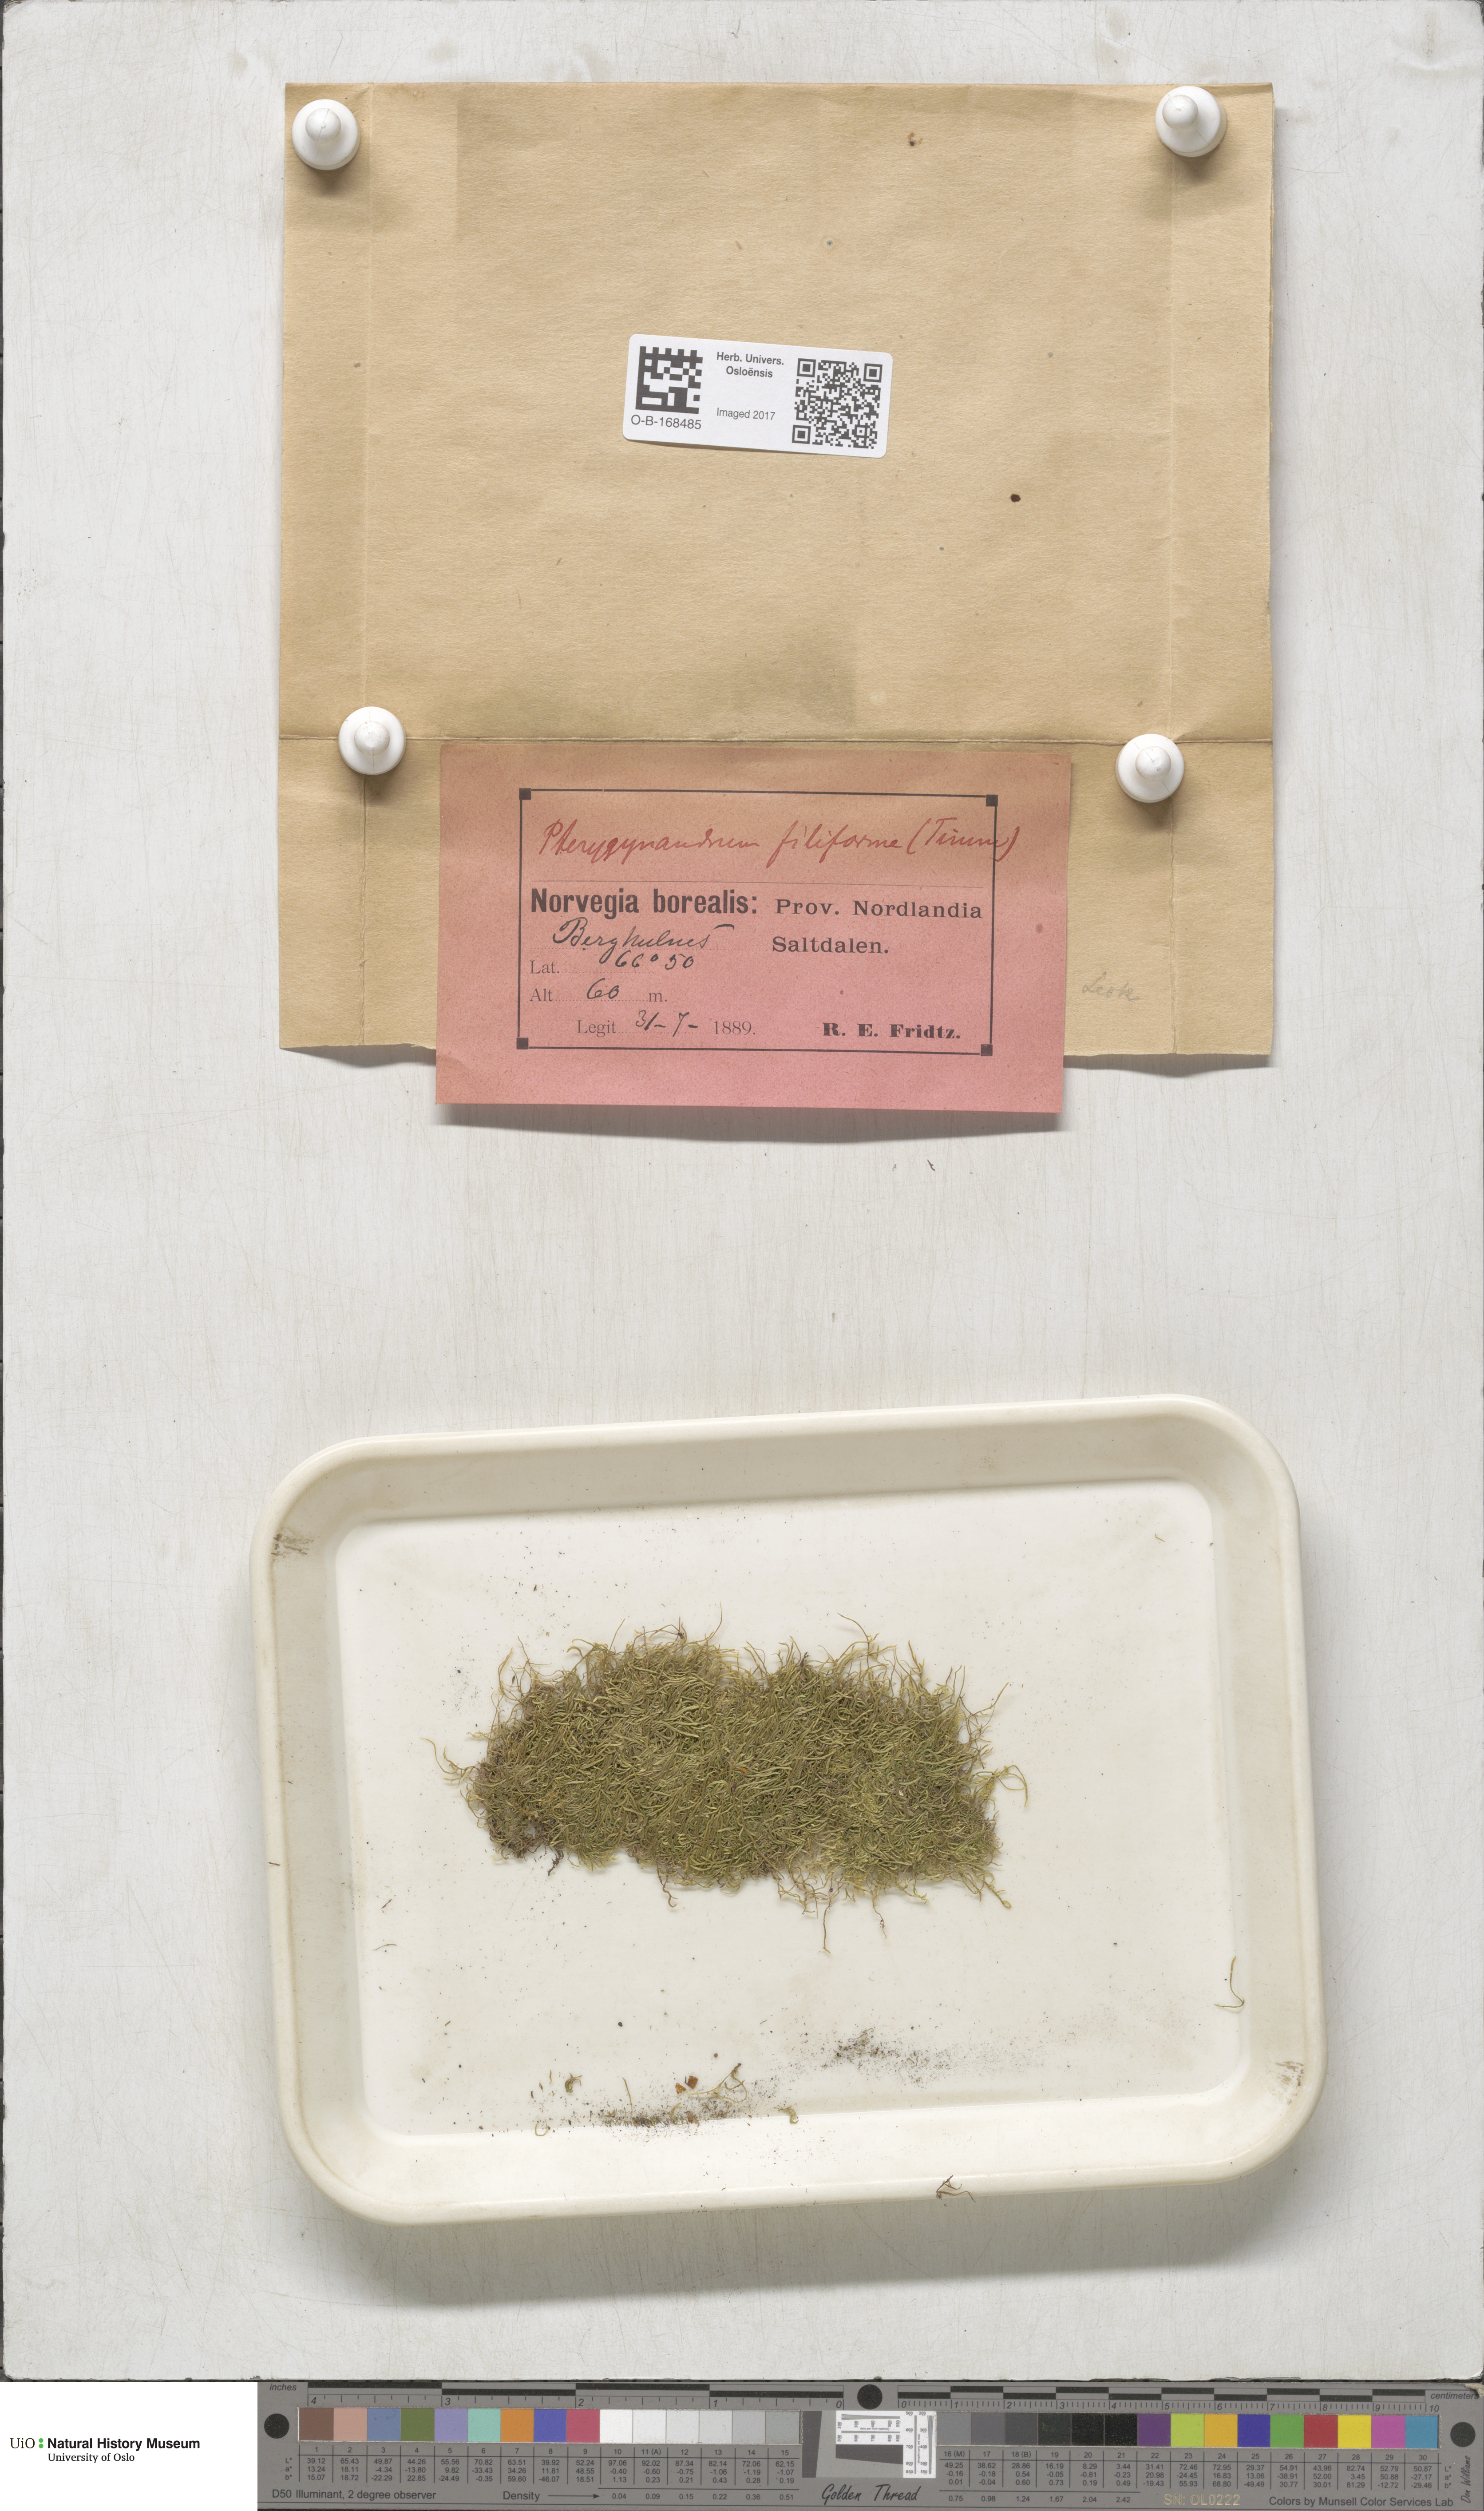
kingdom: Plantae
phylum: Bryophyta
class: Bryopsida
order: Hypnales
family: Pterigynandraceae
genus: Pterigynandrum
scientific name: Pterigynandrum filiforme
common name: Capillary wing moss
